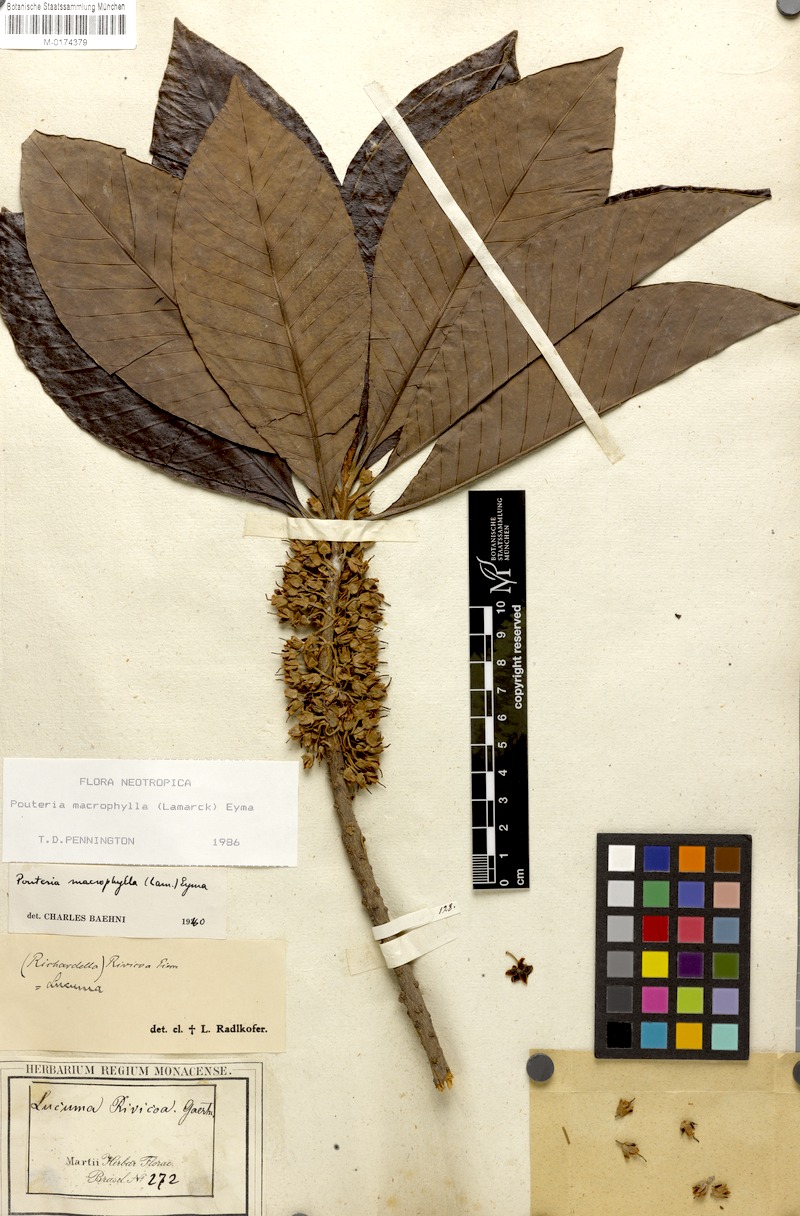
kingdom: Plantae
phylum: Tracheophyta
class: Magnoliopsida
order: Ericales
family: Sapotaceae
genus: Pouteria
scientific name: Pouteria macrophylla
